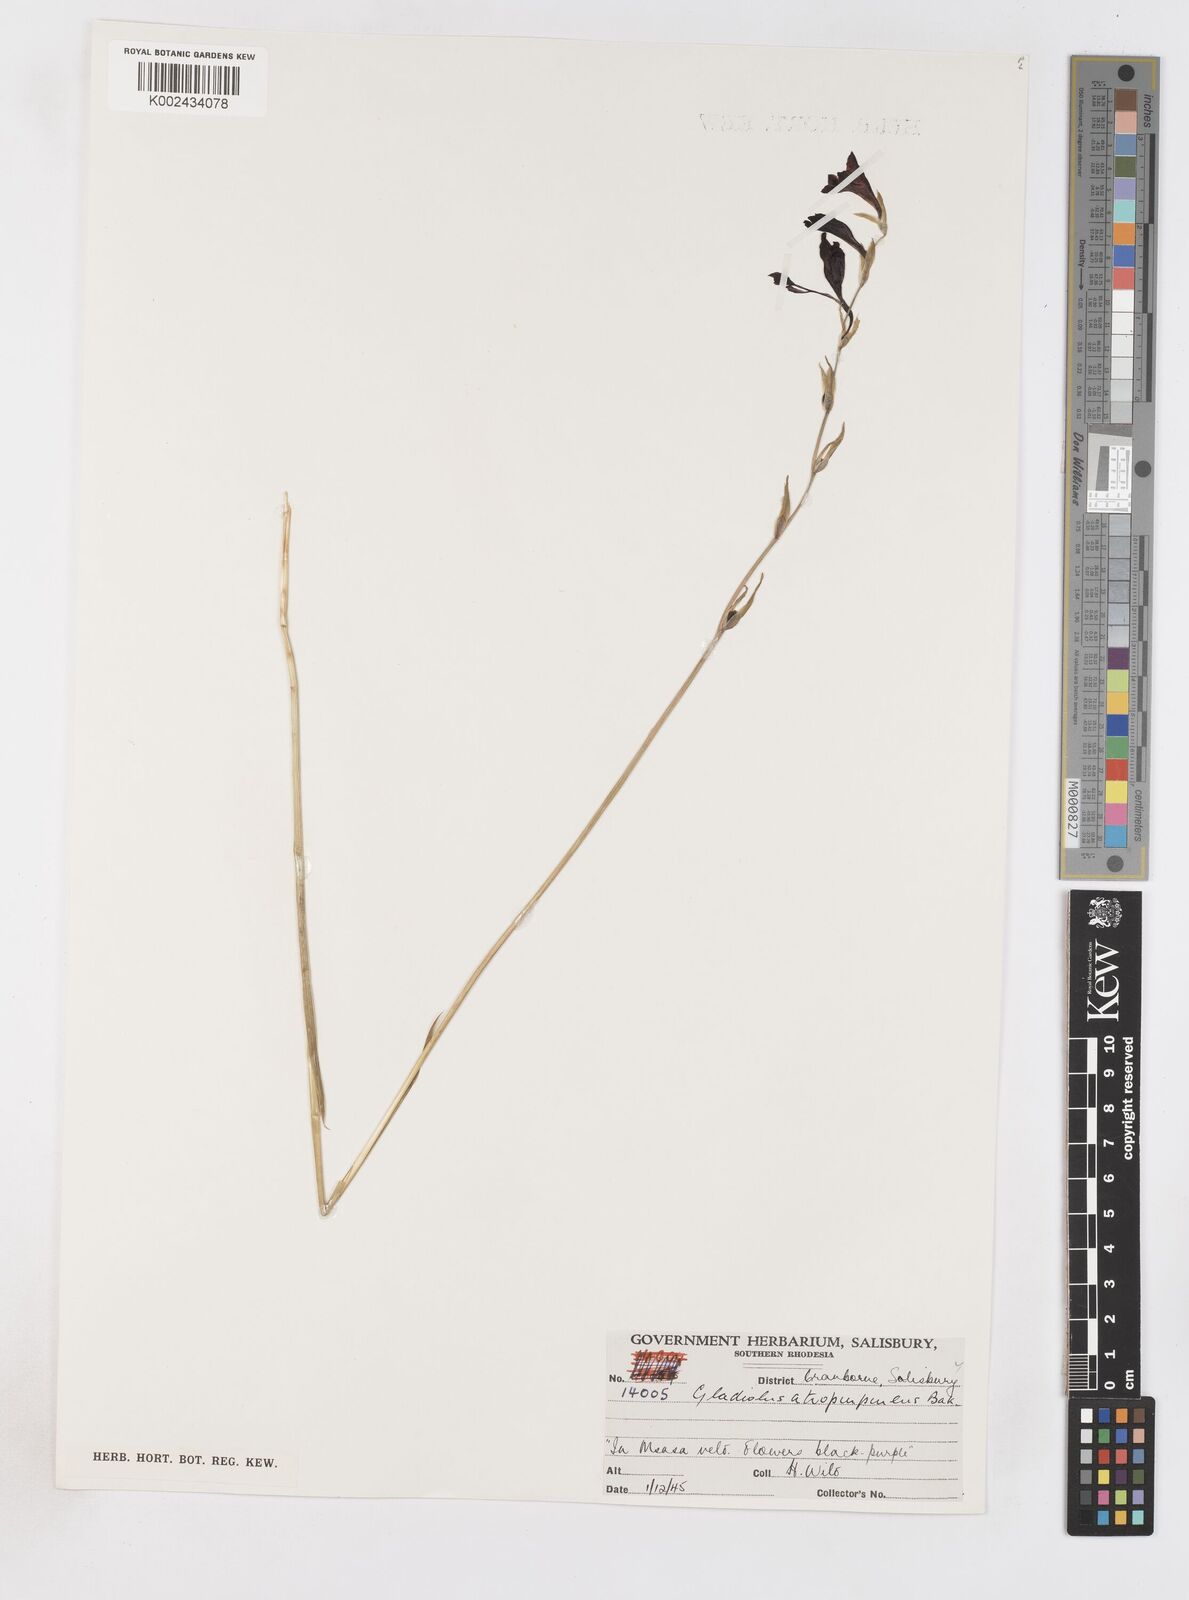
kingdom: Plantae
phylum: Tracheophyta
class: Liliopsida
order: Asparagales
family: Iridaceae
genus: Gladiolus
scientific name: Gladiolus atropurpureus
